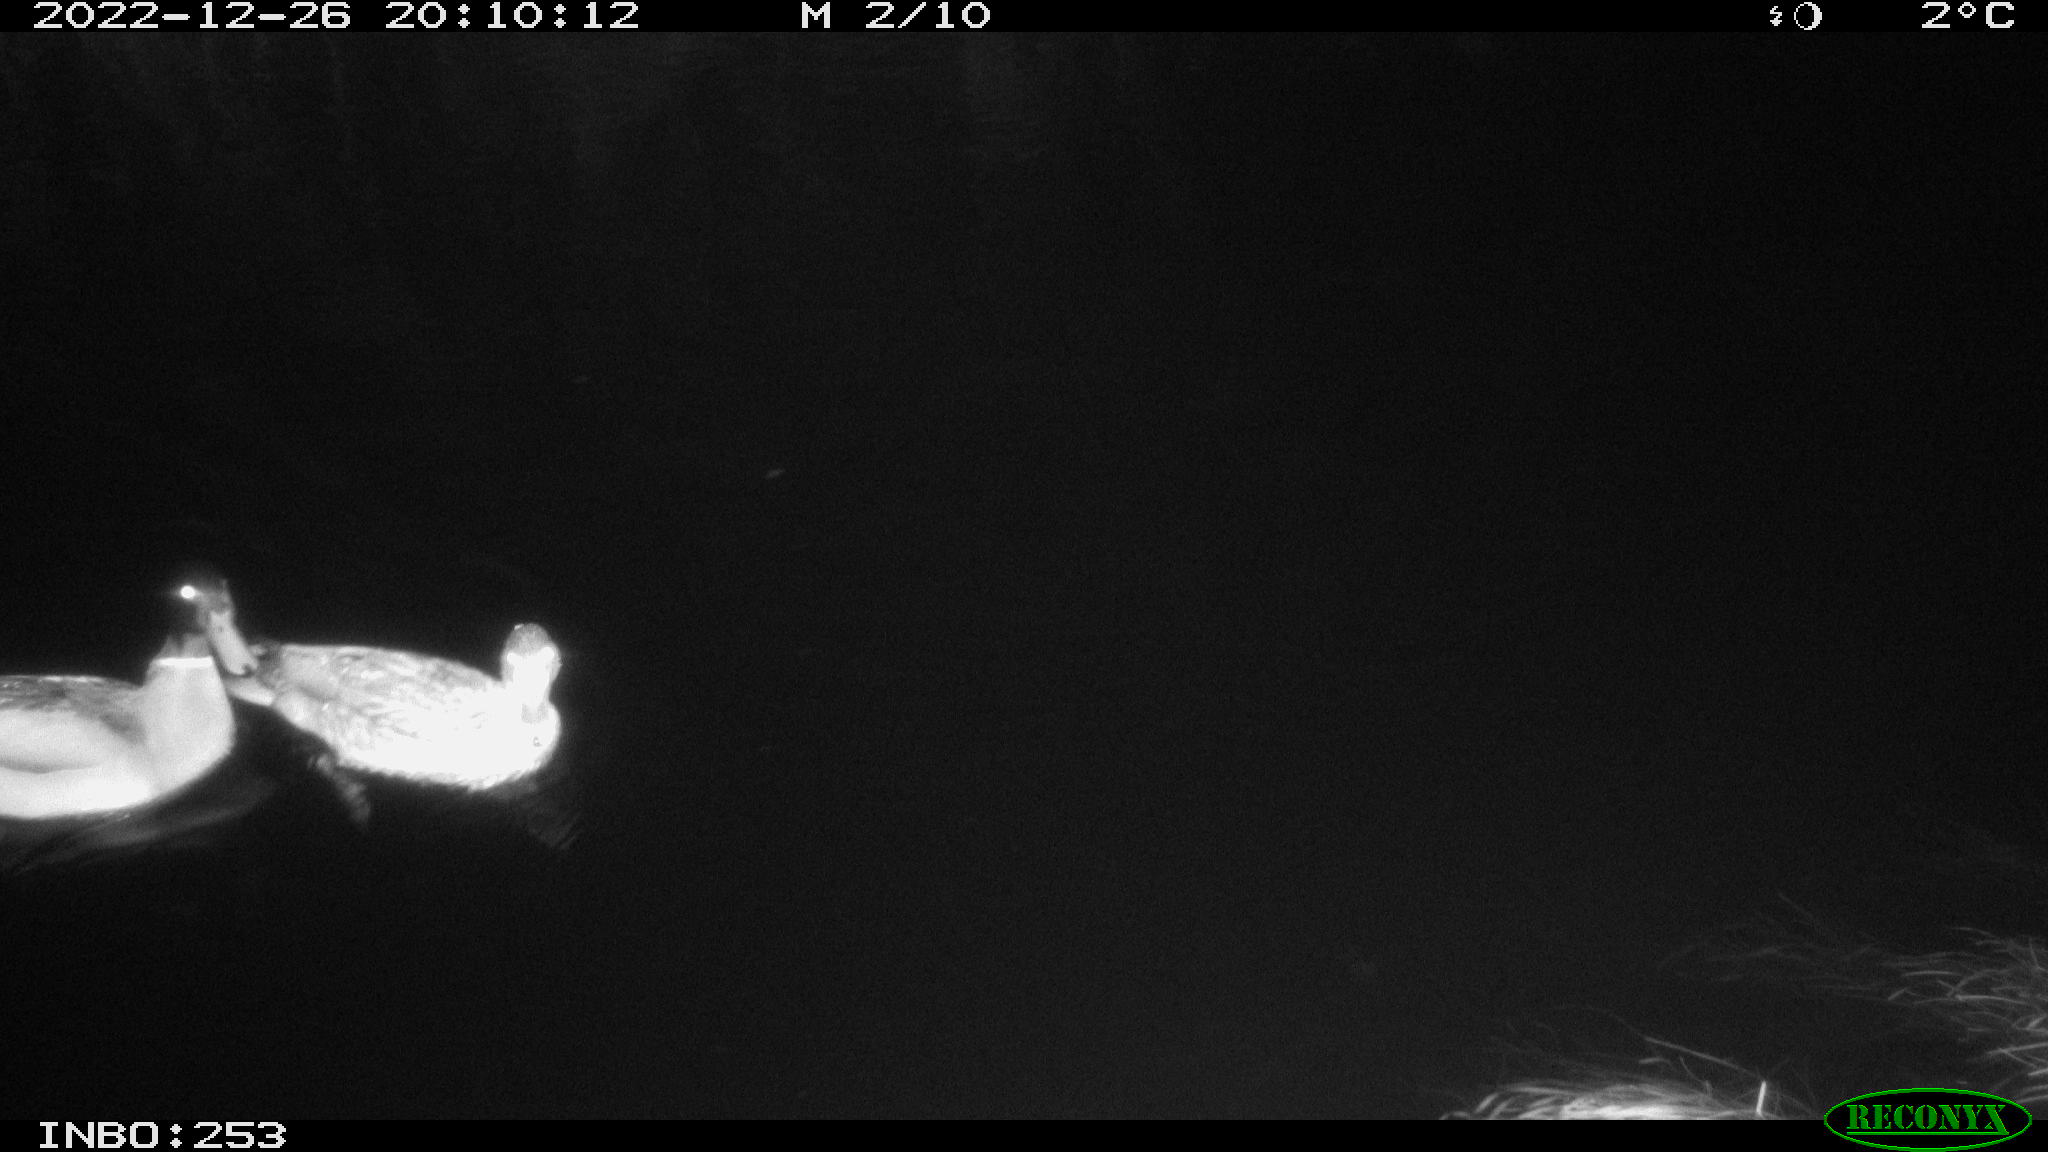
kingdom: Animalia
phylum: Chordata
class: Aves
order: Anseriformes
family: Anatidae
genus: Anas
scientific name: Anas
